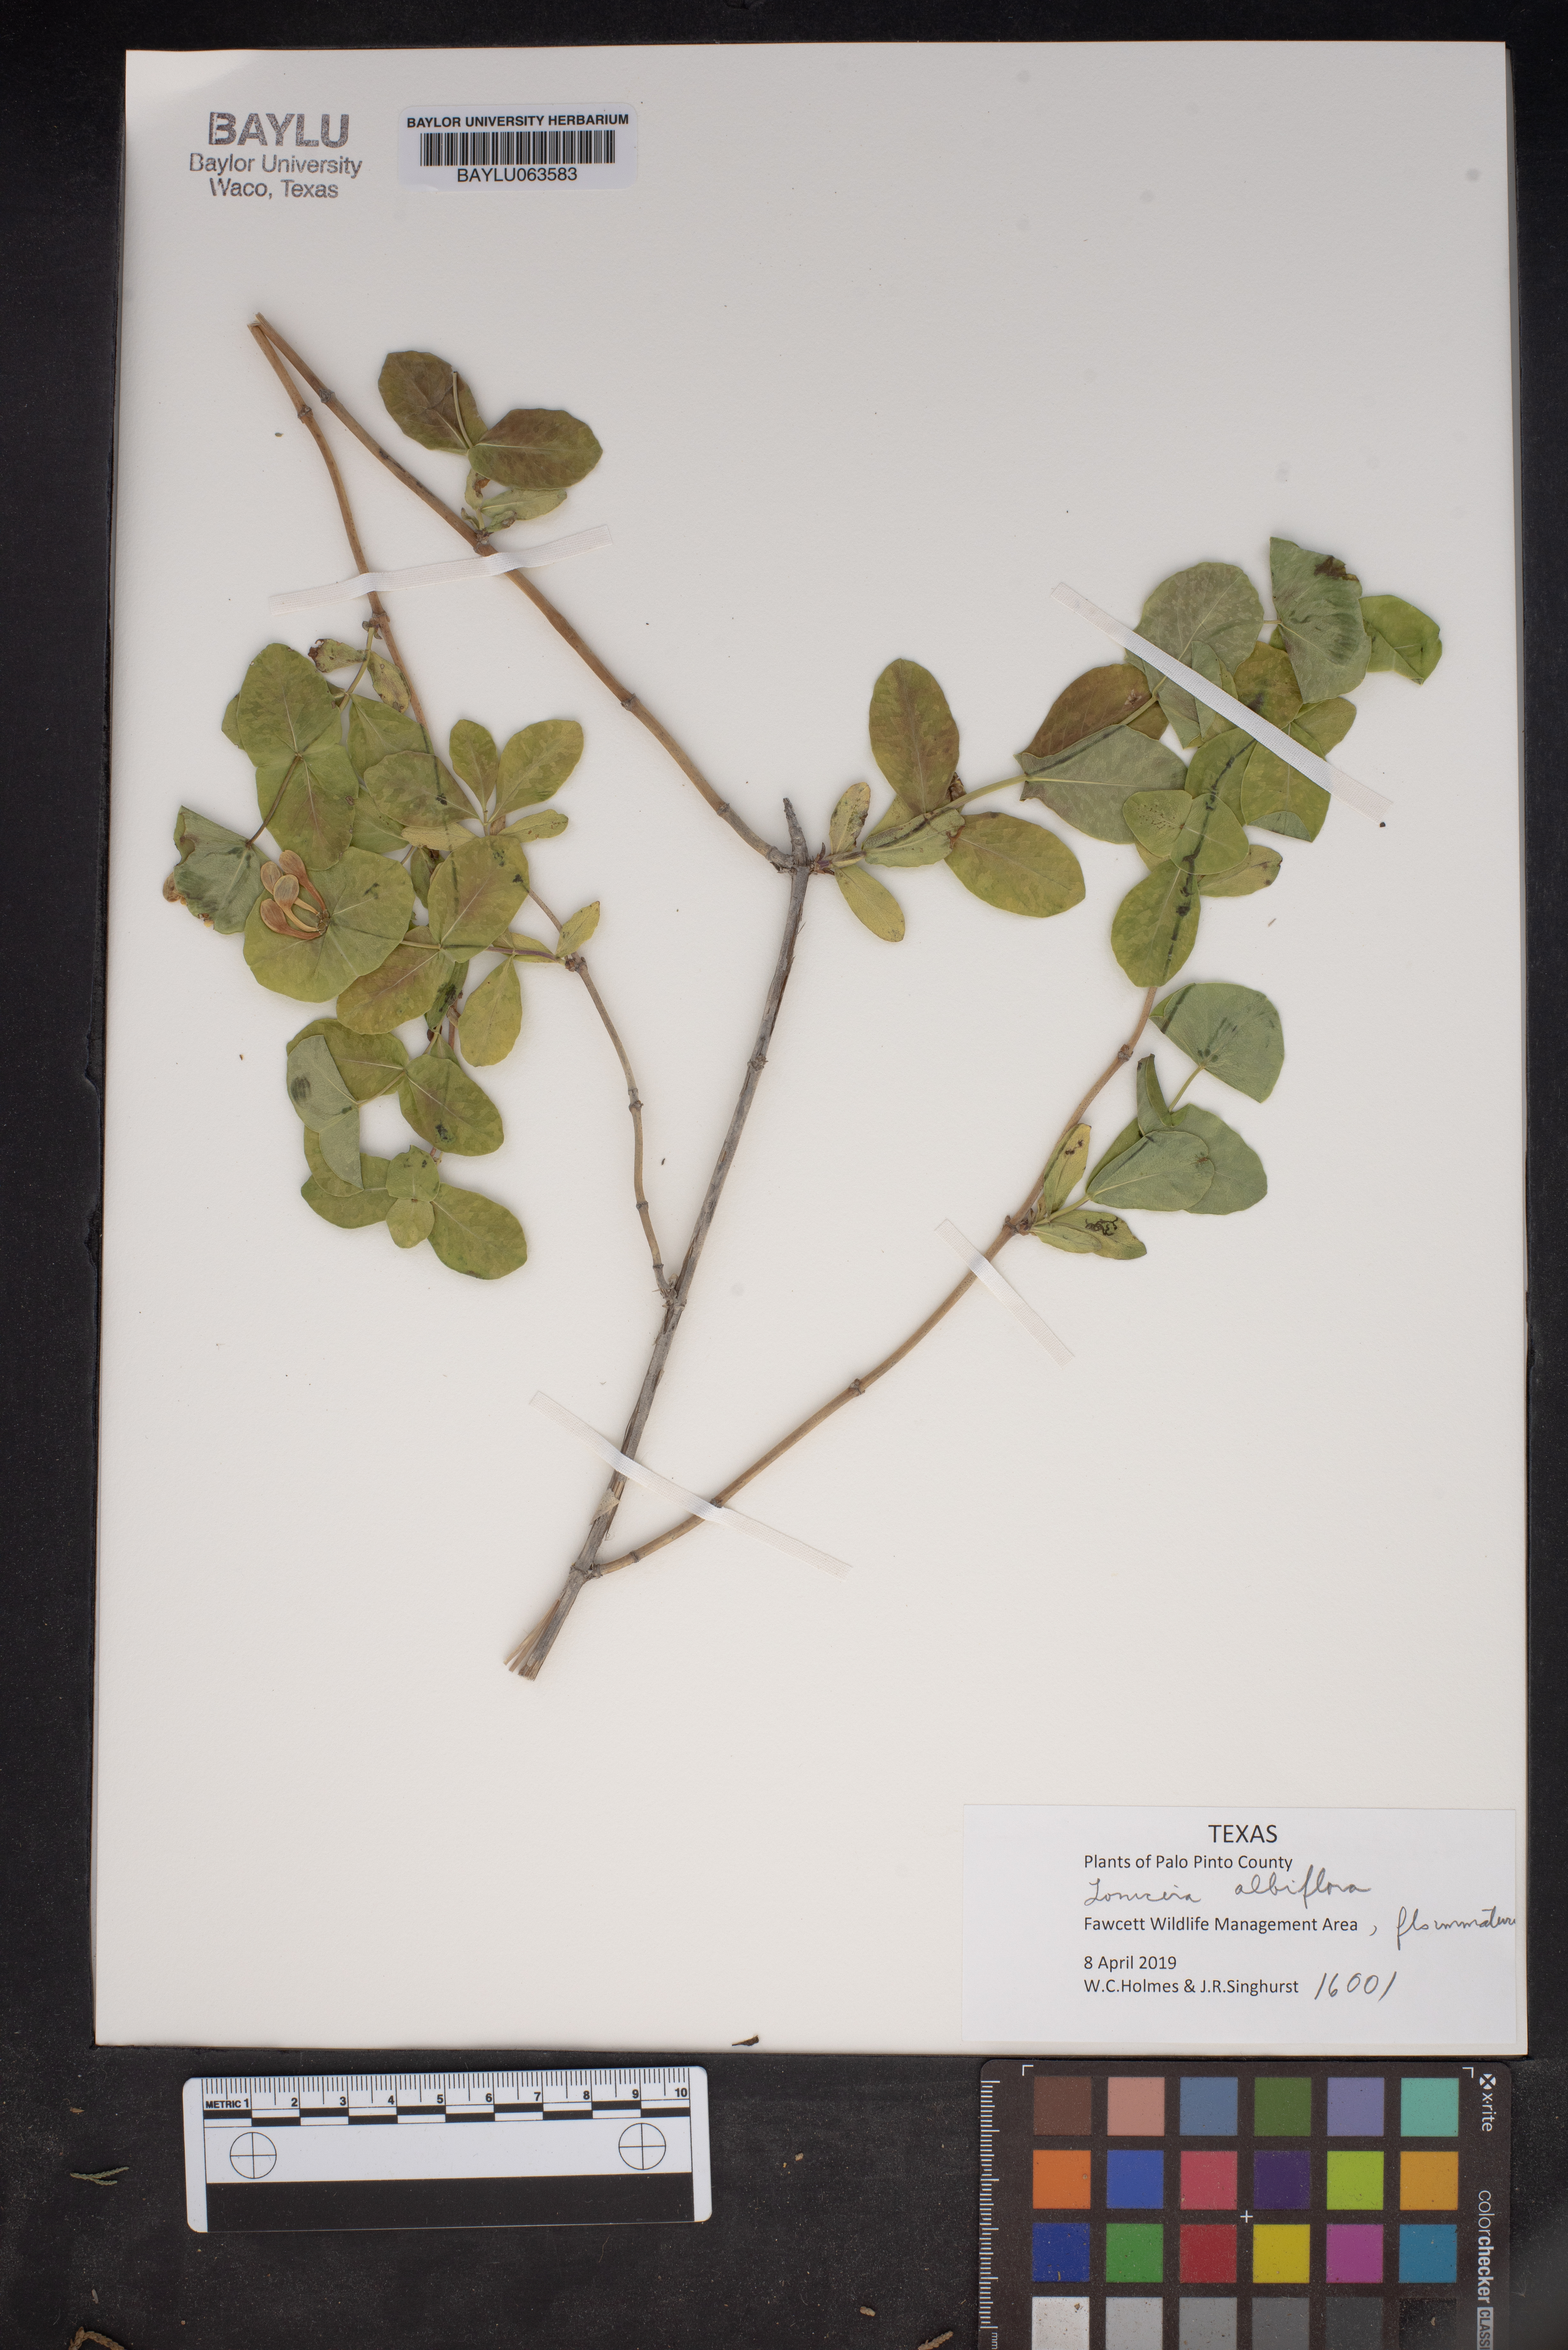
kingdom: Plantae
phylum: Tracheophyta
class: Magnoliopsida
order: Dipsacales
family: Caprifoliaceae
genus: Lonicera
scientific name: Lonicera albiflora
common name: White honeysuckle
